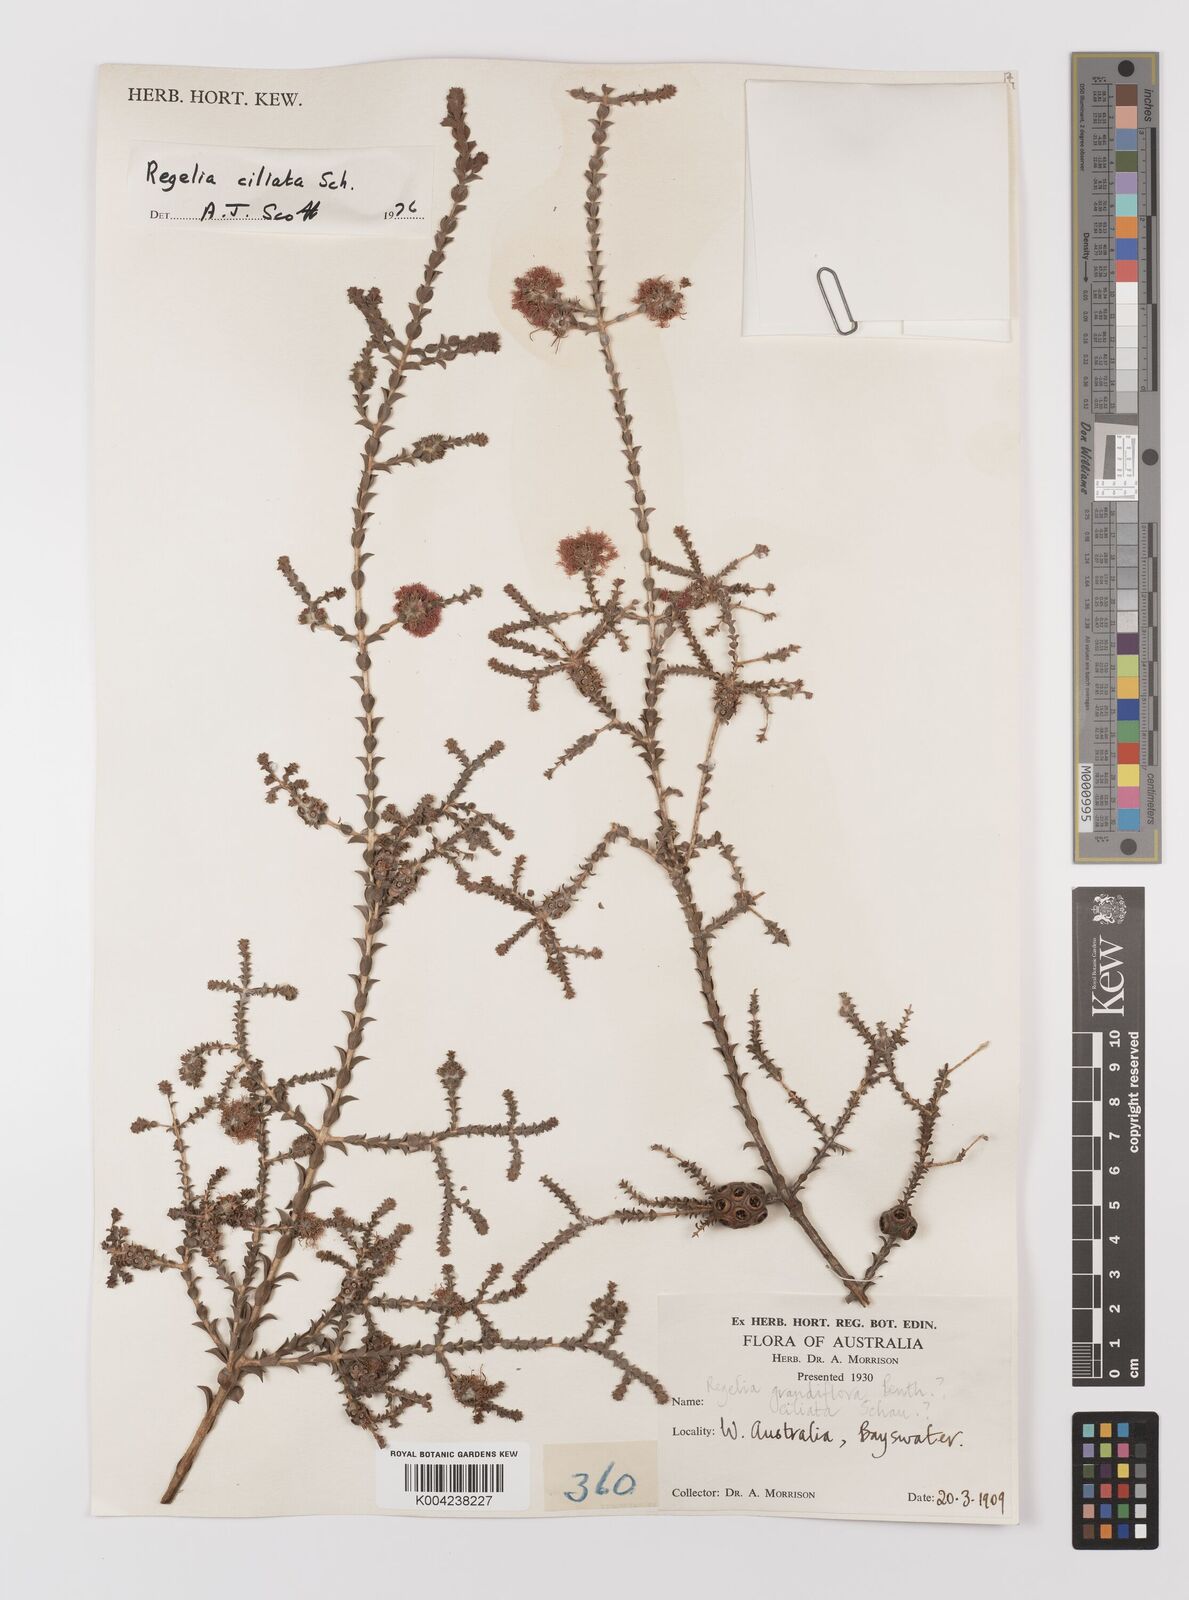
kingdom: Plantae
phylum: Tracheophyta
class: Magnoliopsida
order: Myrtales
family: Myrtaceae
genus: Melaleuca
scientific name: Melaleuca crossota
